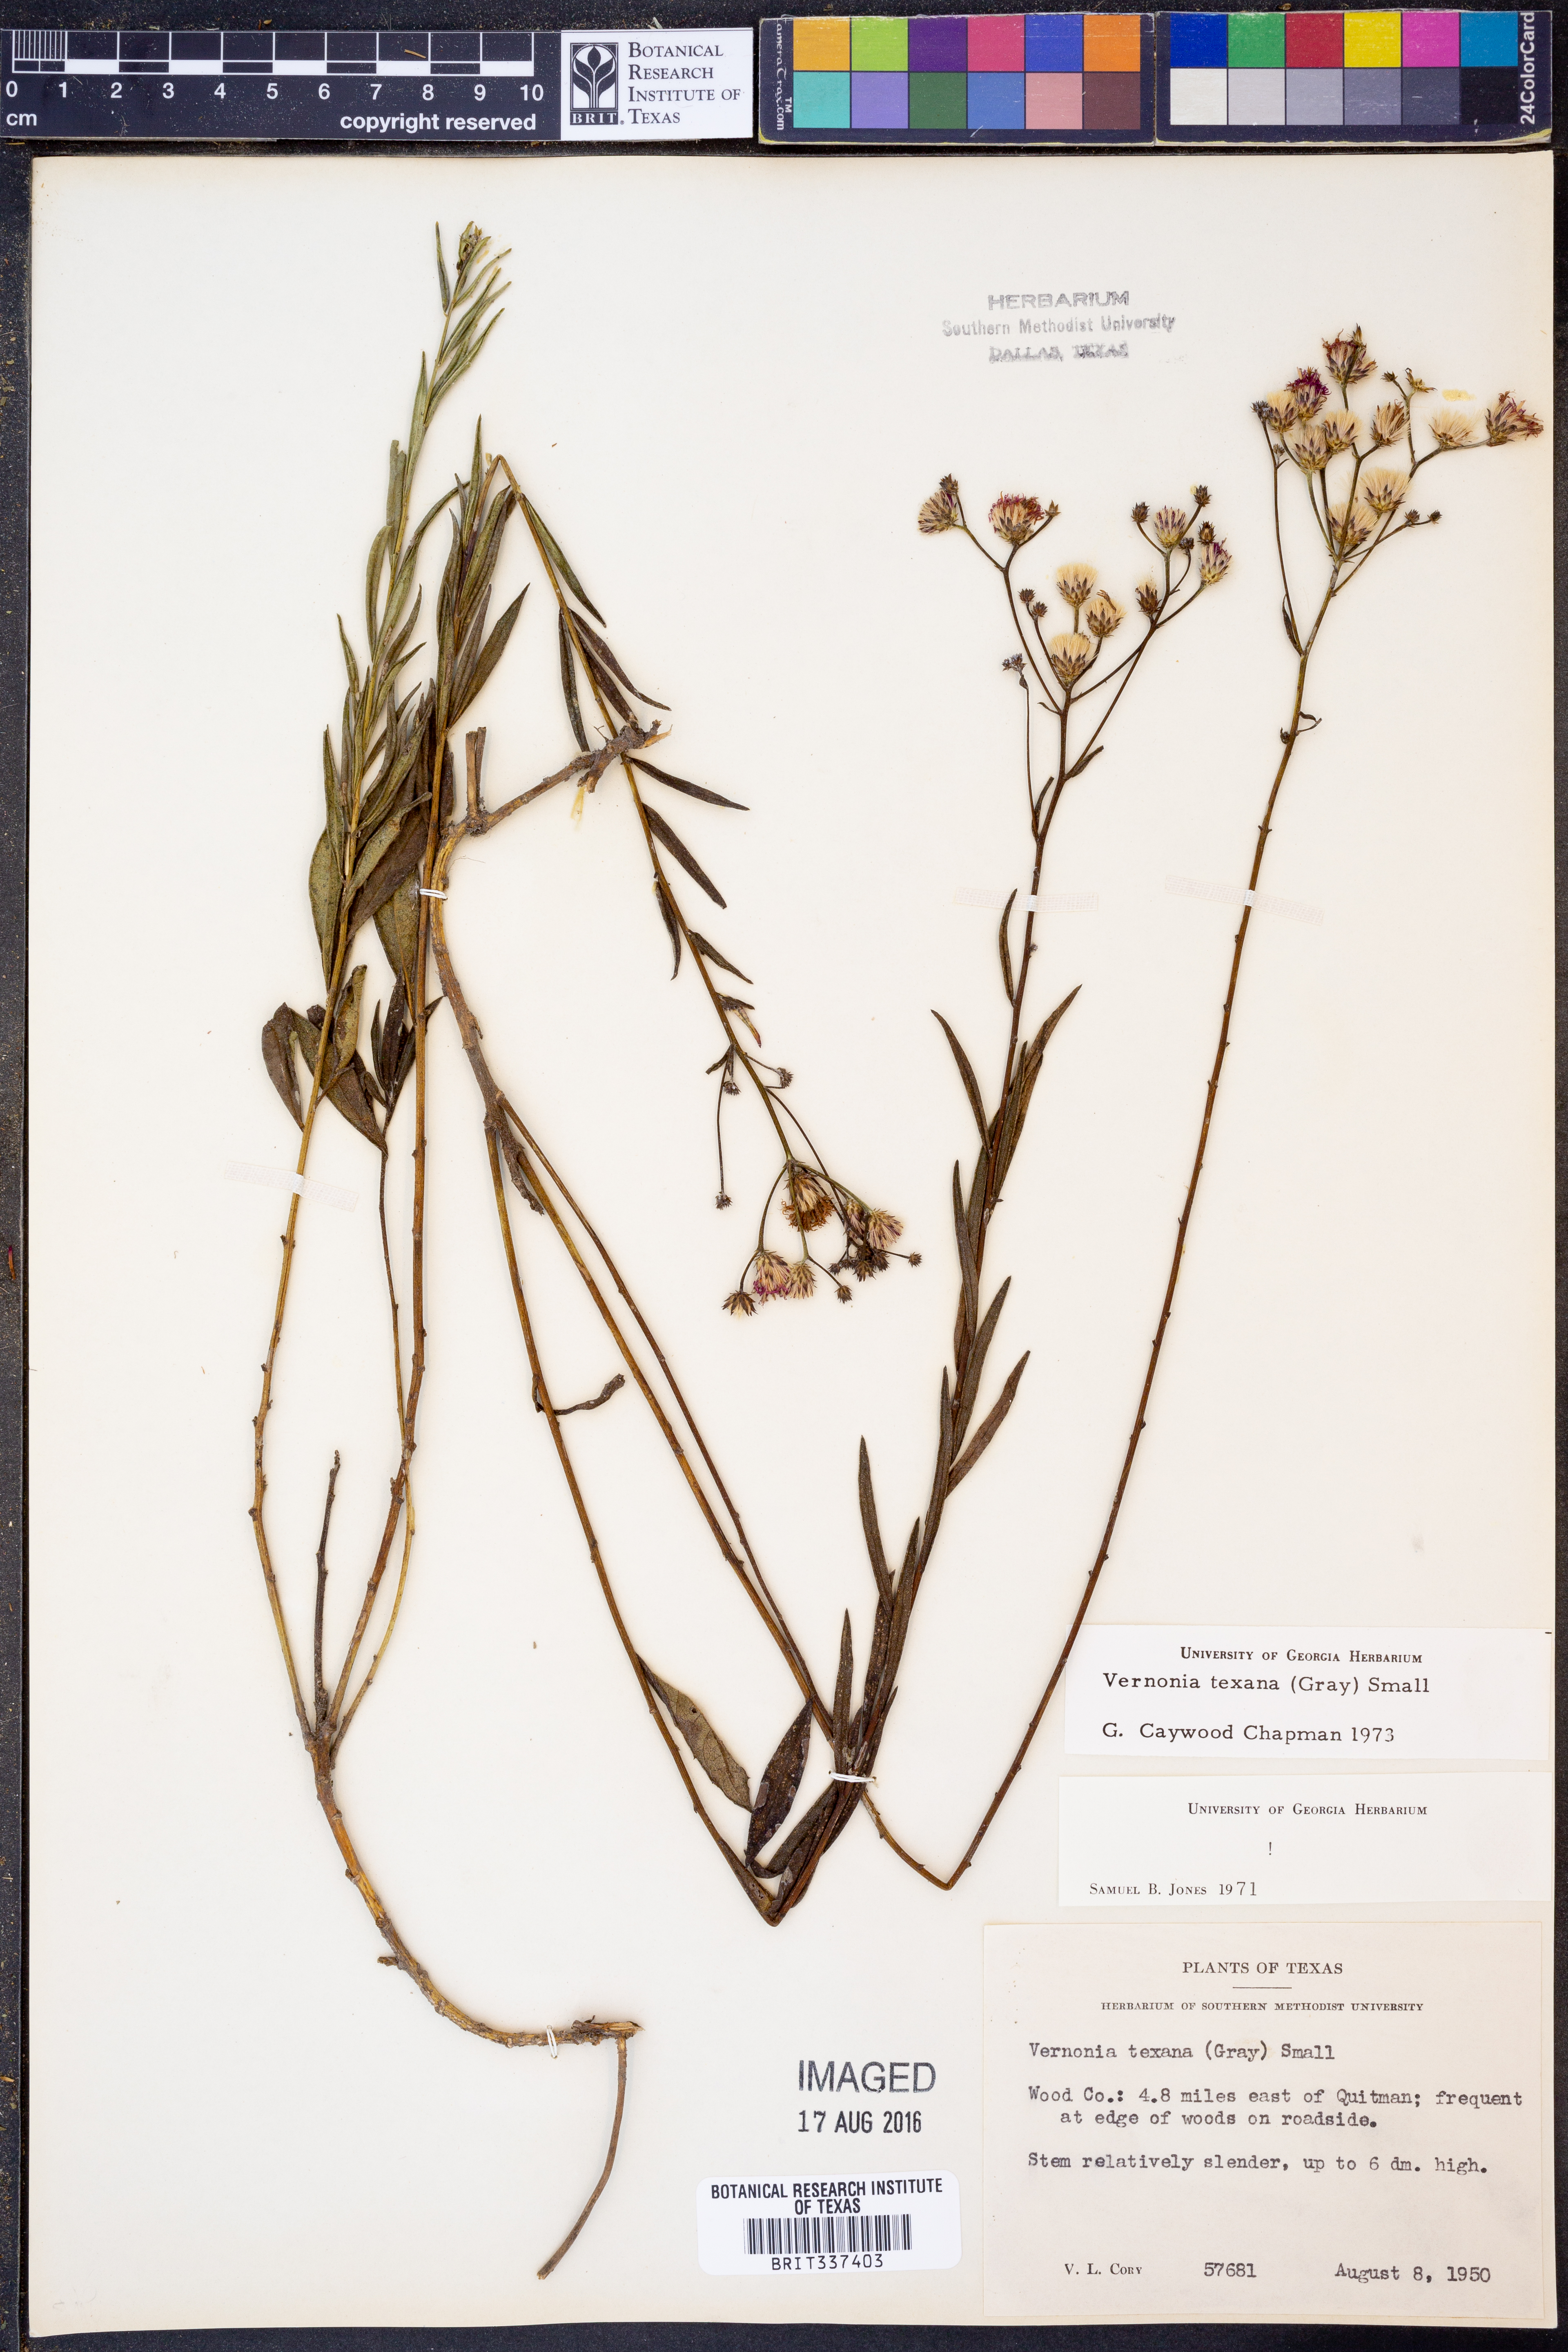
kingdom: Plantae
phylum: Tracheophyta
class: Magnoliopsida
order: Asterales
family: Asteraceae
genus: Vernonia
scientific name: Vernonia texana
